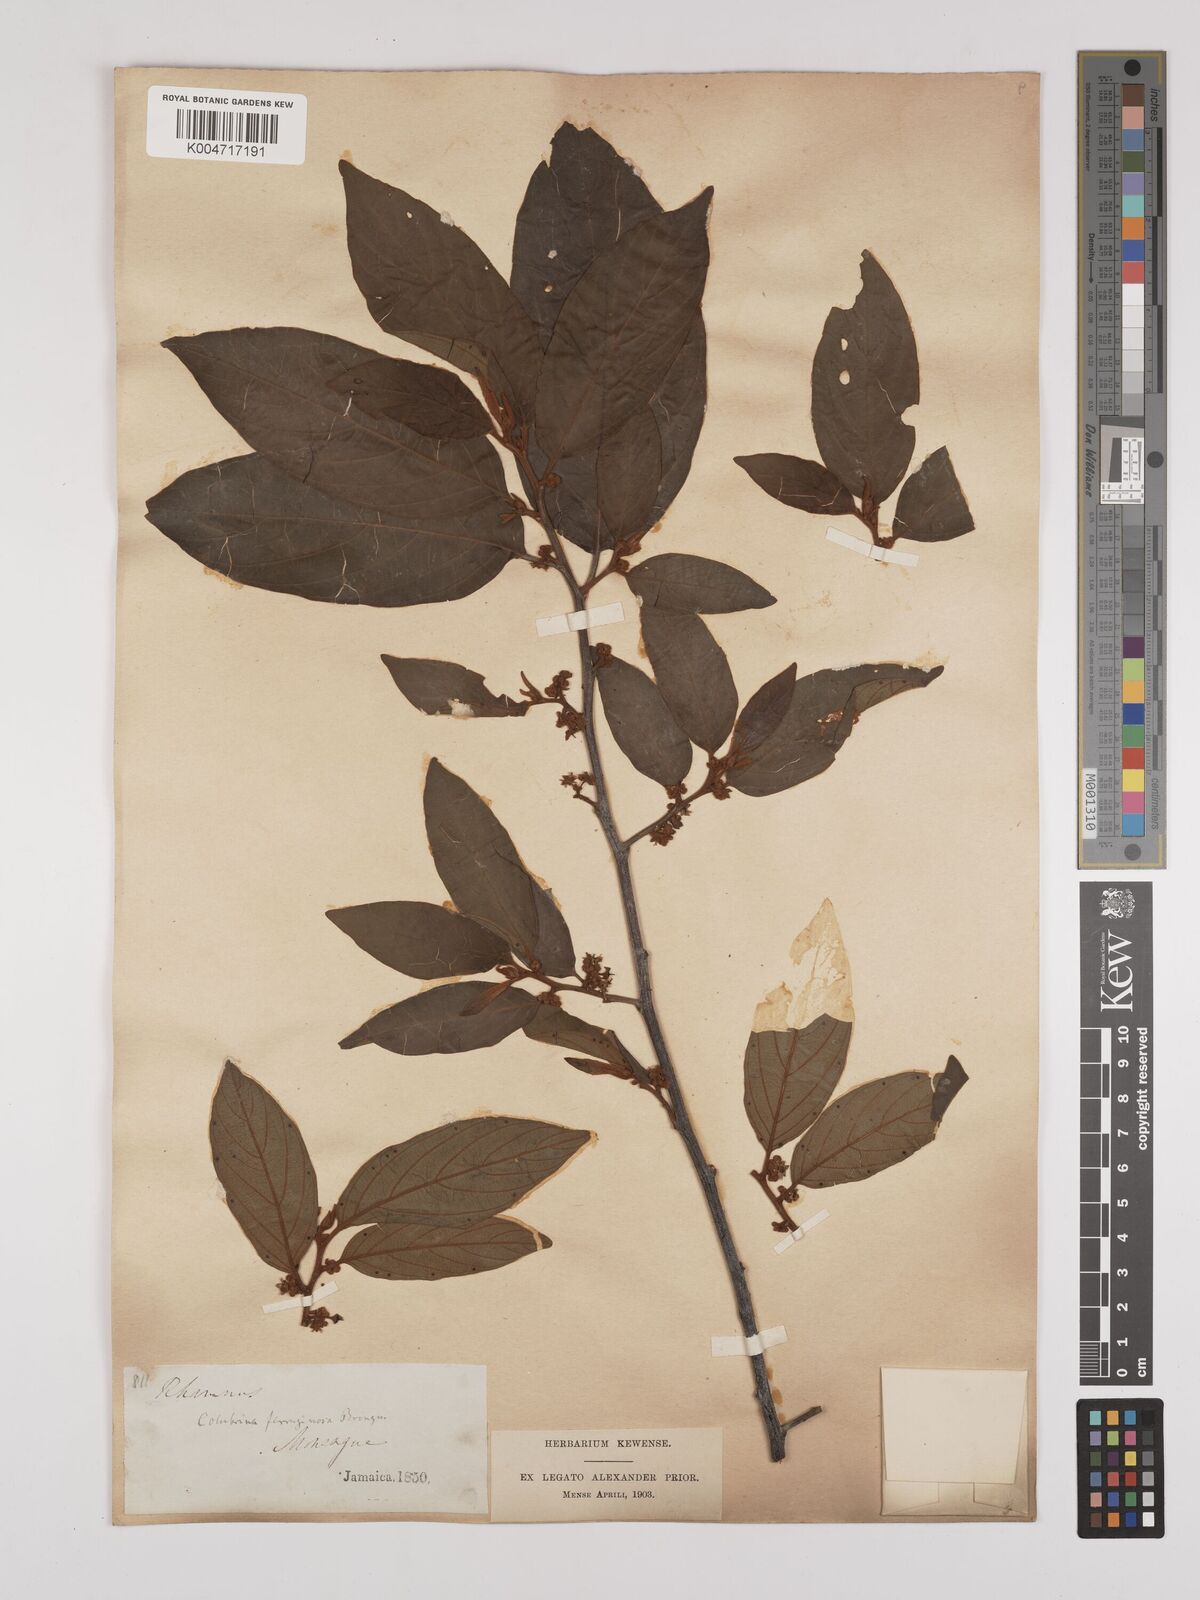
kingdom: Plantae
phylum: Tracheophyta
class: Magnoliopsida
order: Rosales
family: Rhamnaceae
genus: Colubrina
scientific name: Colubrina arborescens
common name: Wild coffee
